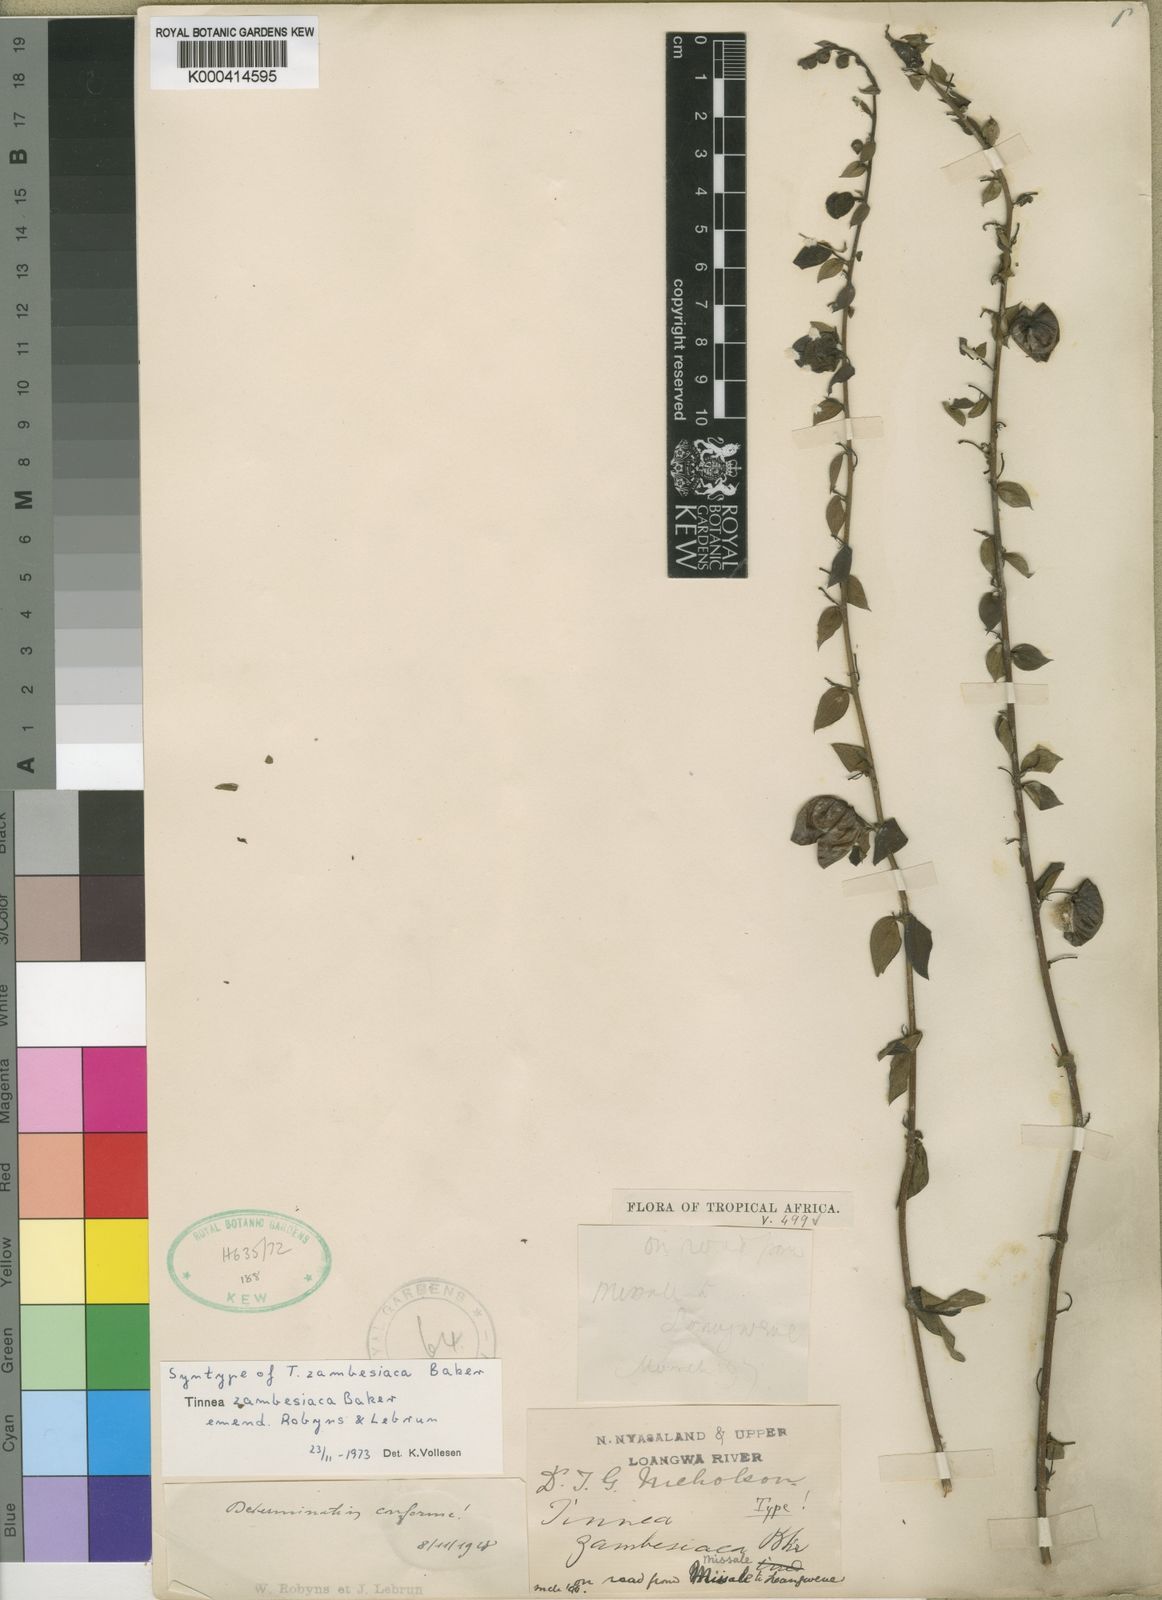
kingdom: Plantae
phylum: Tracheophyta
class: Magnoliopsida
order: Lamiales
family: Lamiaceae
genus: Tinnea
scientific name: Tinnea zambesiaca
